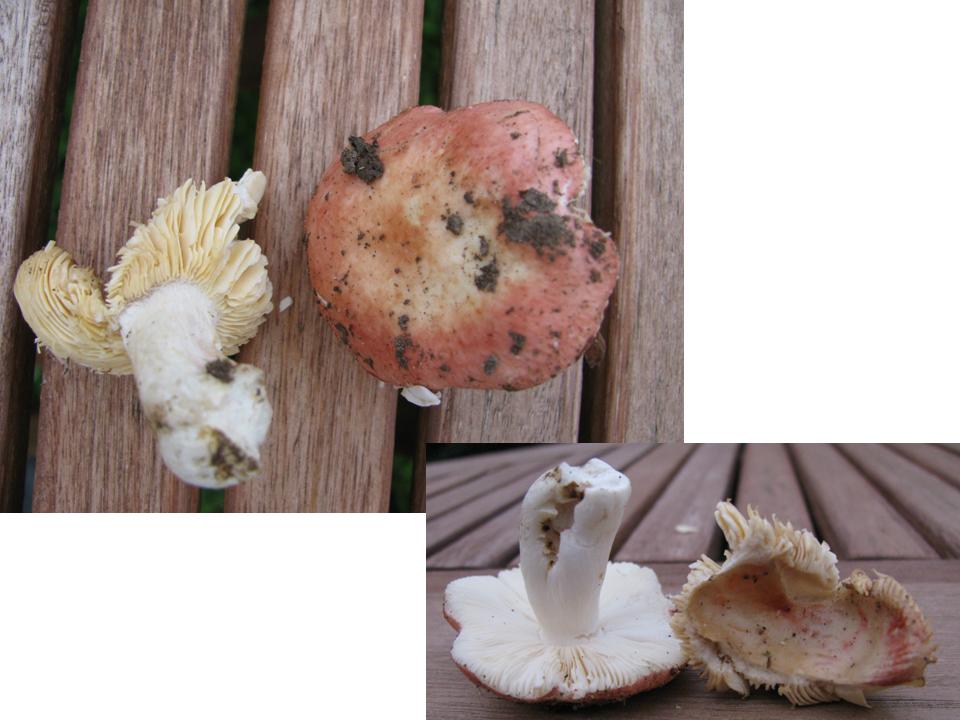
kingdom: Fungi
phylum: Basidiomycota
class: Agaricomycetes
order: Russulales
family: Russulaceae
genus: Russula
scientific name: Russula laeta
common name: orangerosa skørhat
